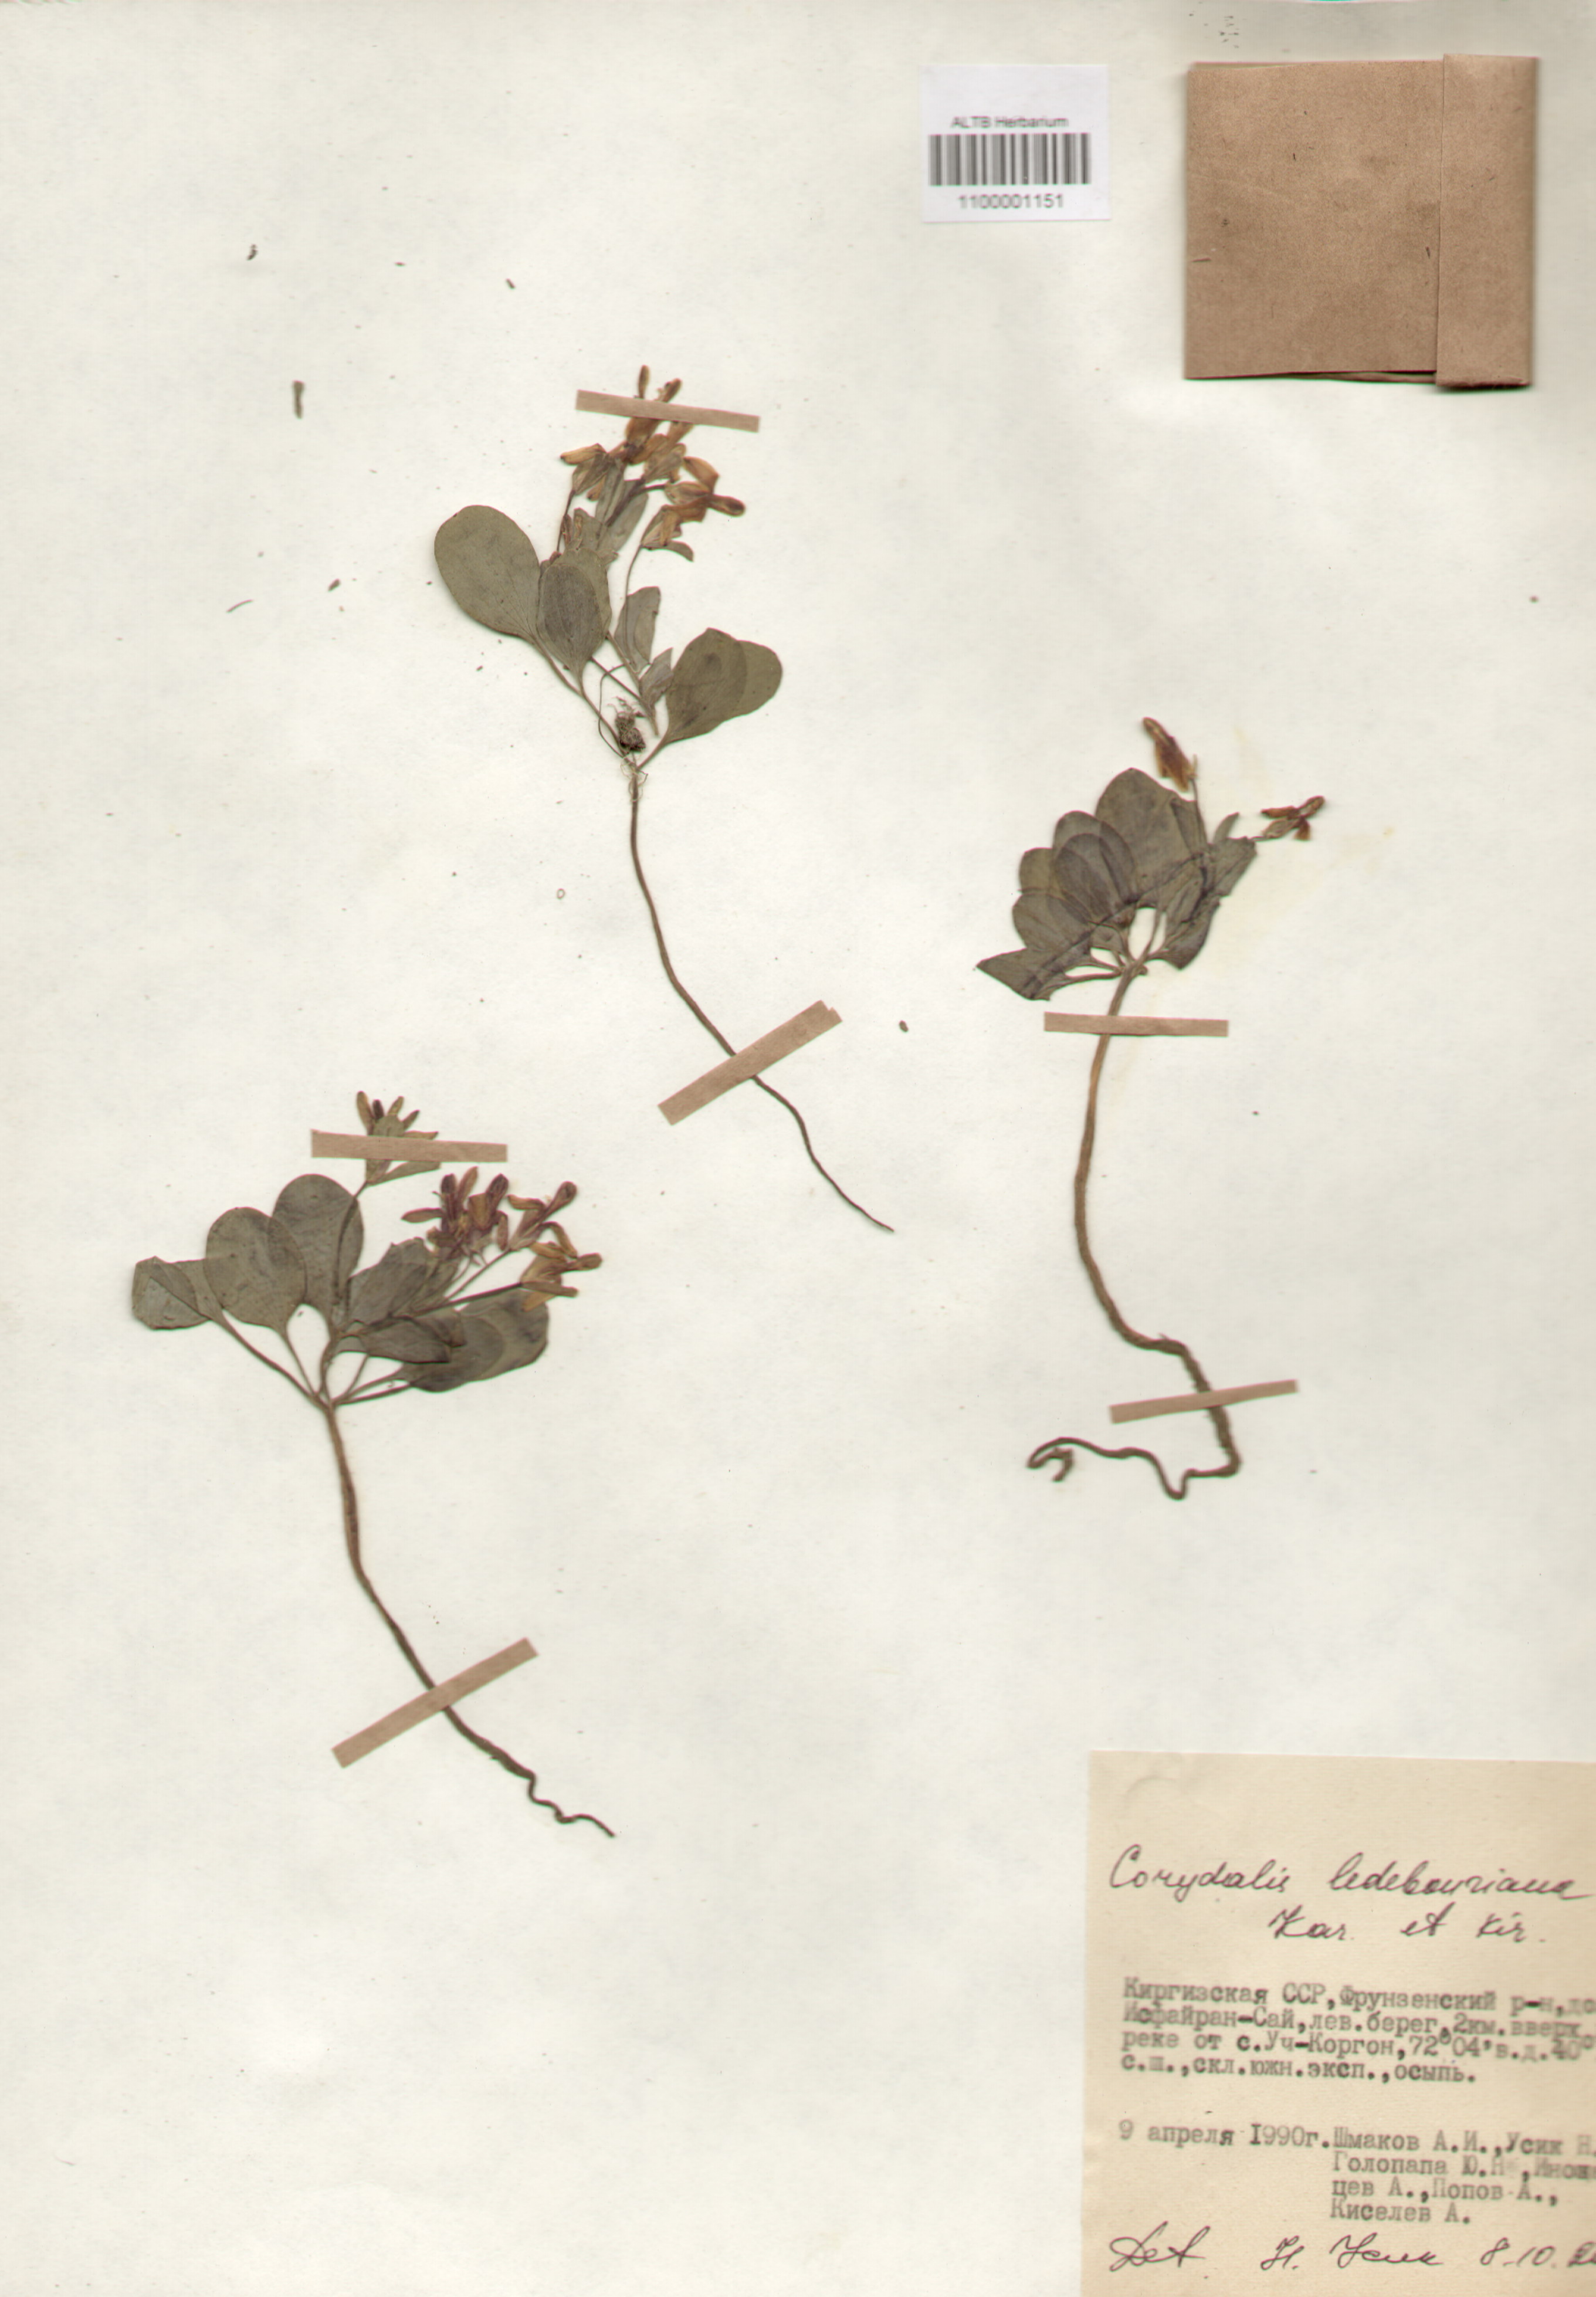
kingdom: Plantae
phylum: Tracheophyta
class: Magnoliopsida
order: Ranunculales
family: Papaveraceae
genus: Corydalis
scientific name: Corydalis ledebouriana
